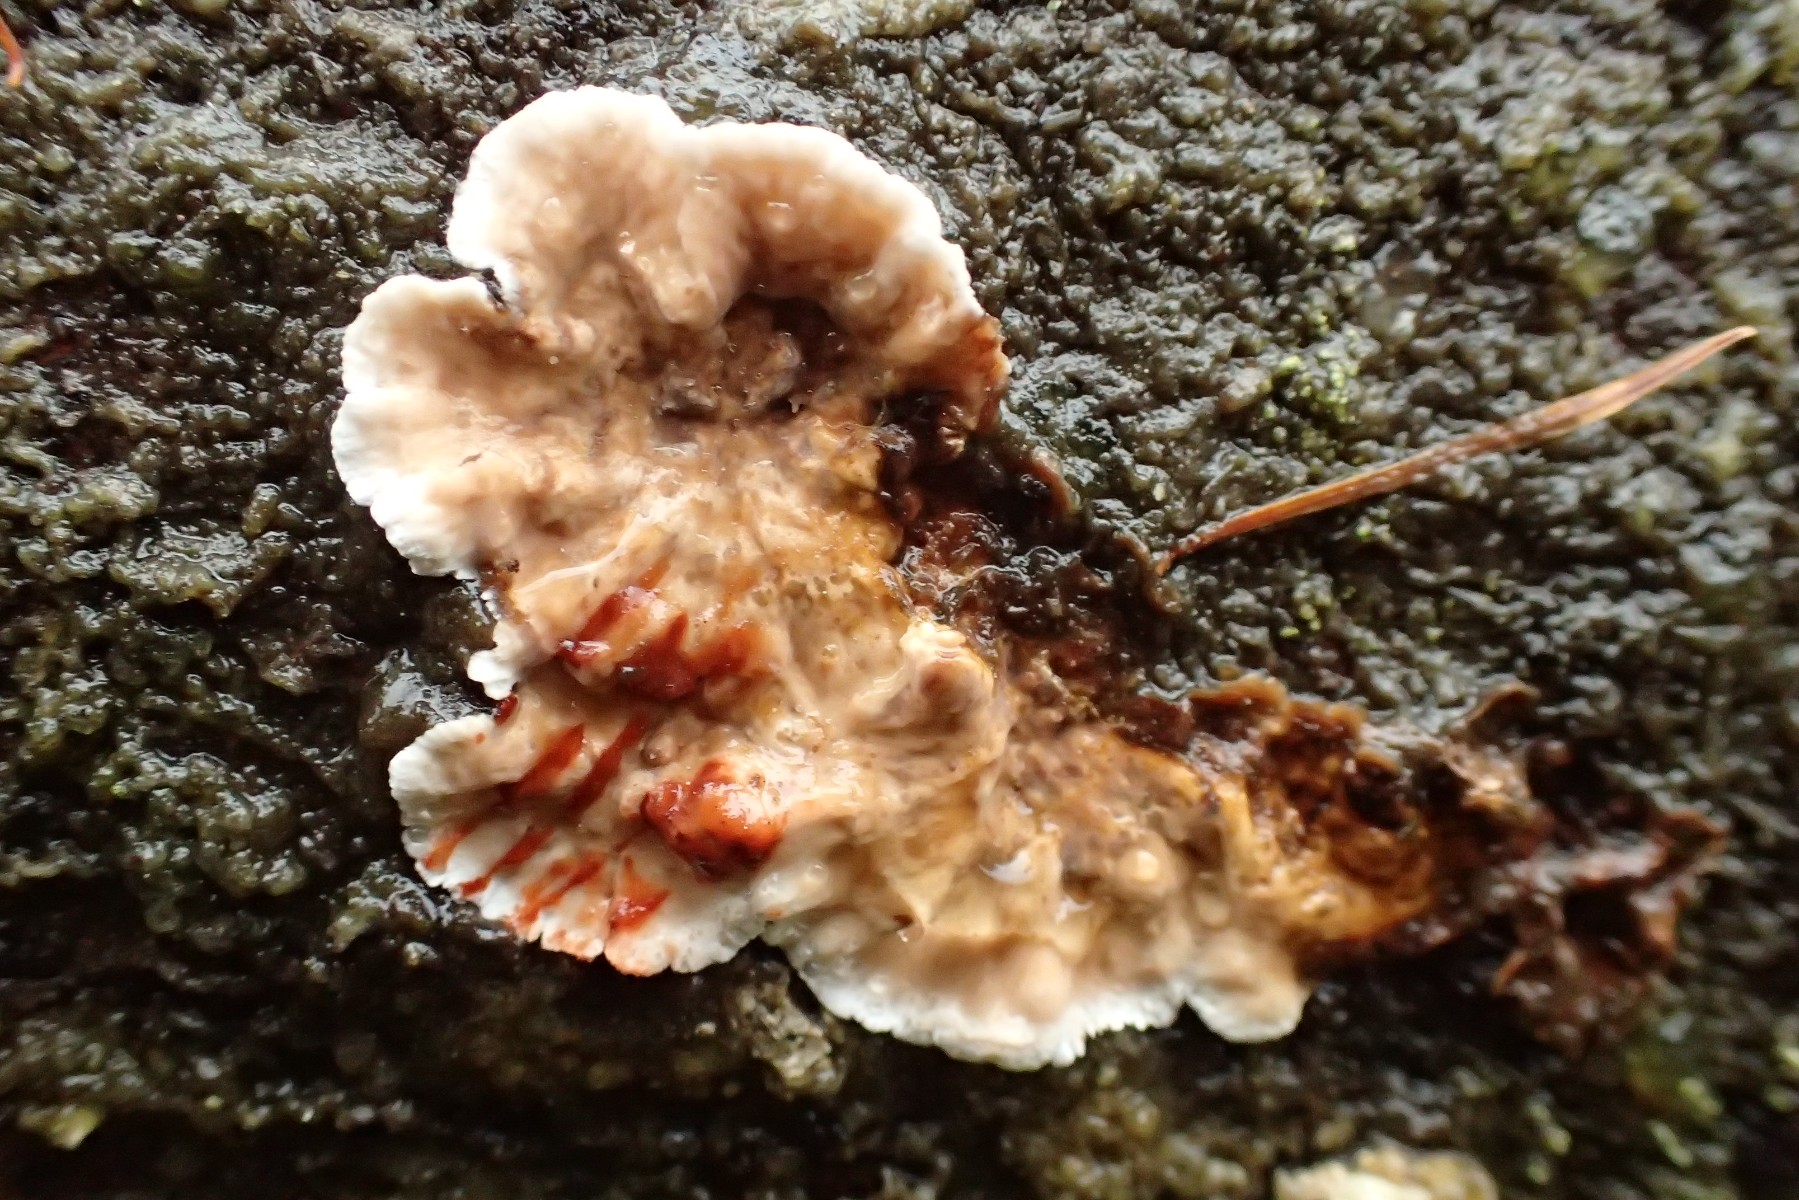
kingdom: Fungi
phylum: Basidiomycota
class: Agaricomycetes
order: Russulales
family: Stereaceae
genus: Stereum
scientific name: Stereum sanguinolentum
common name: blødende lædersvamp
